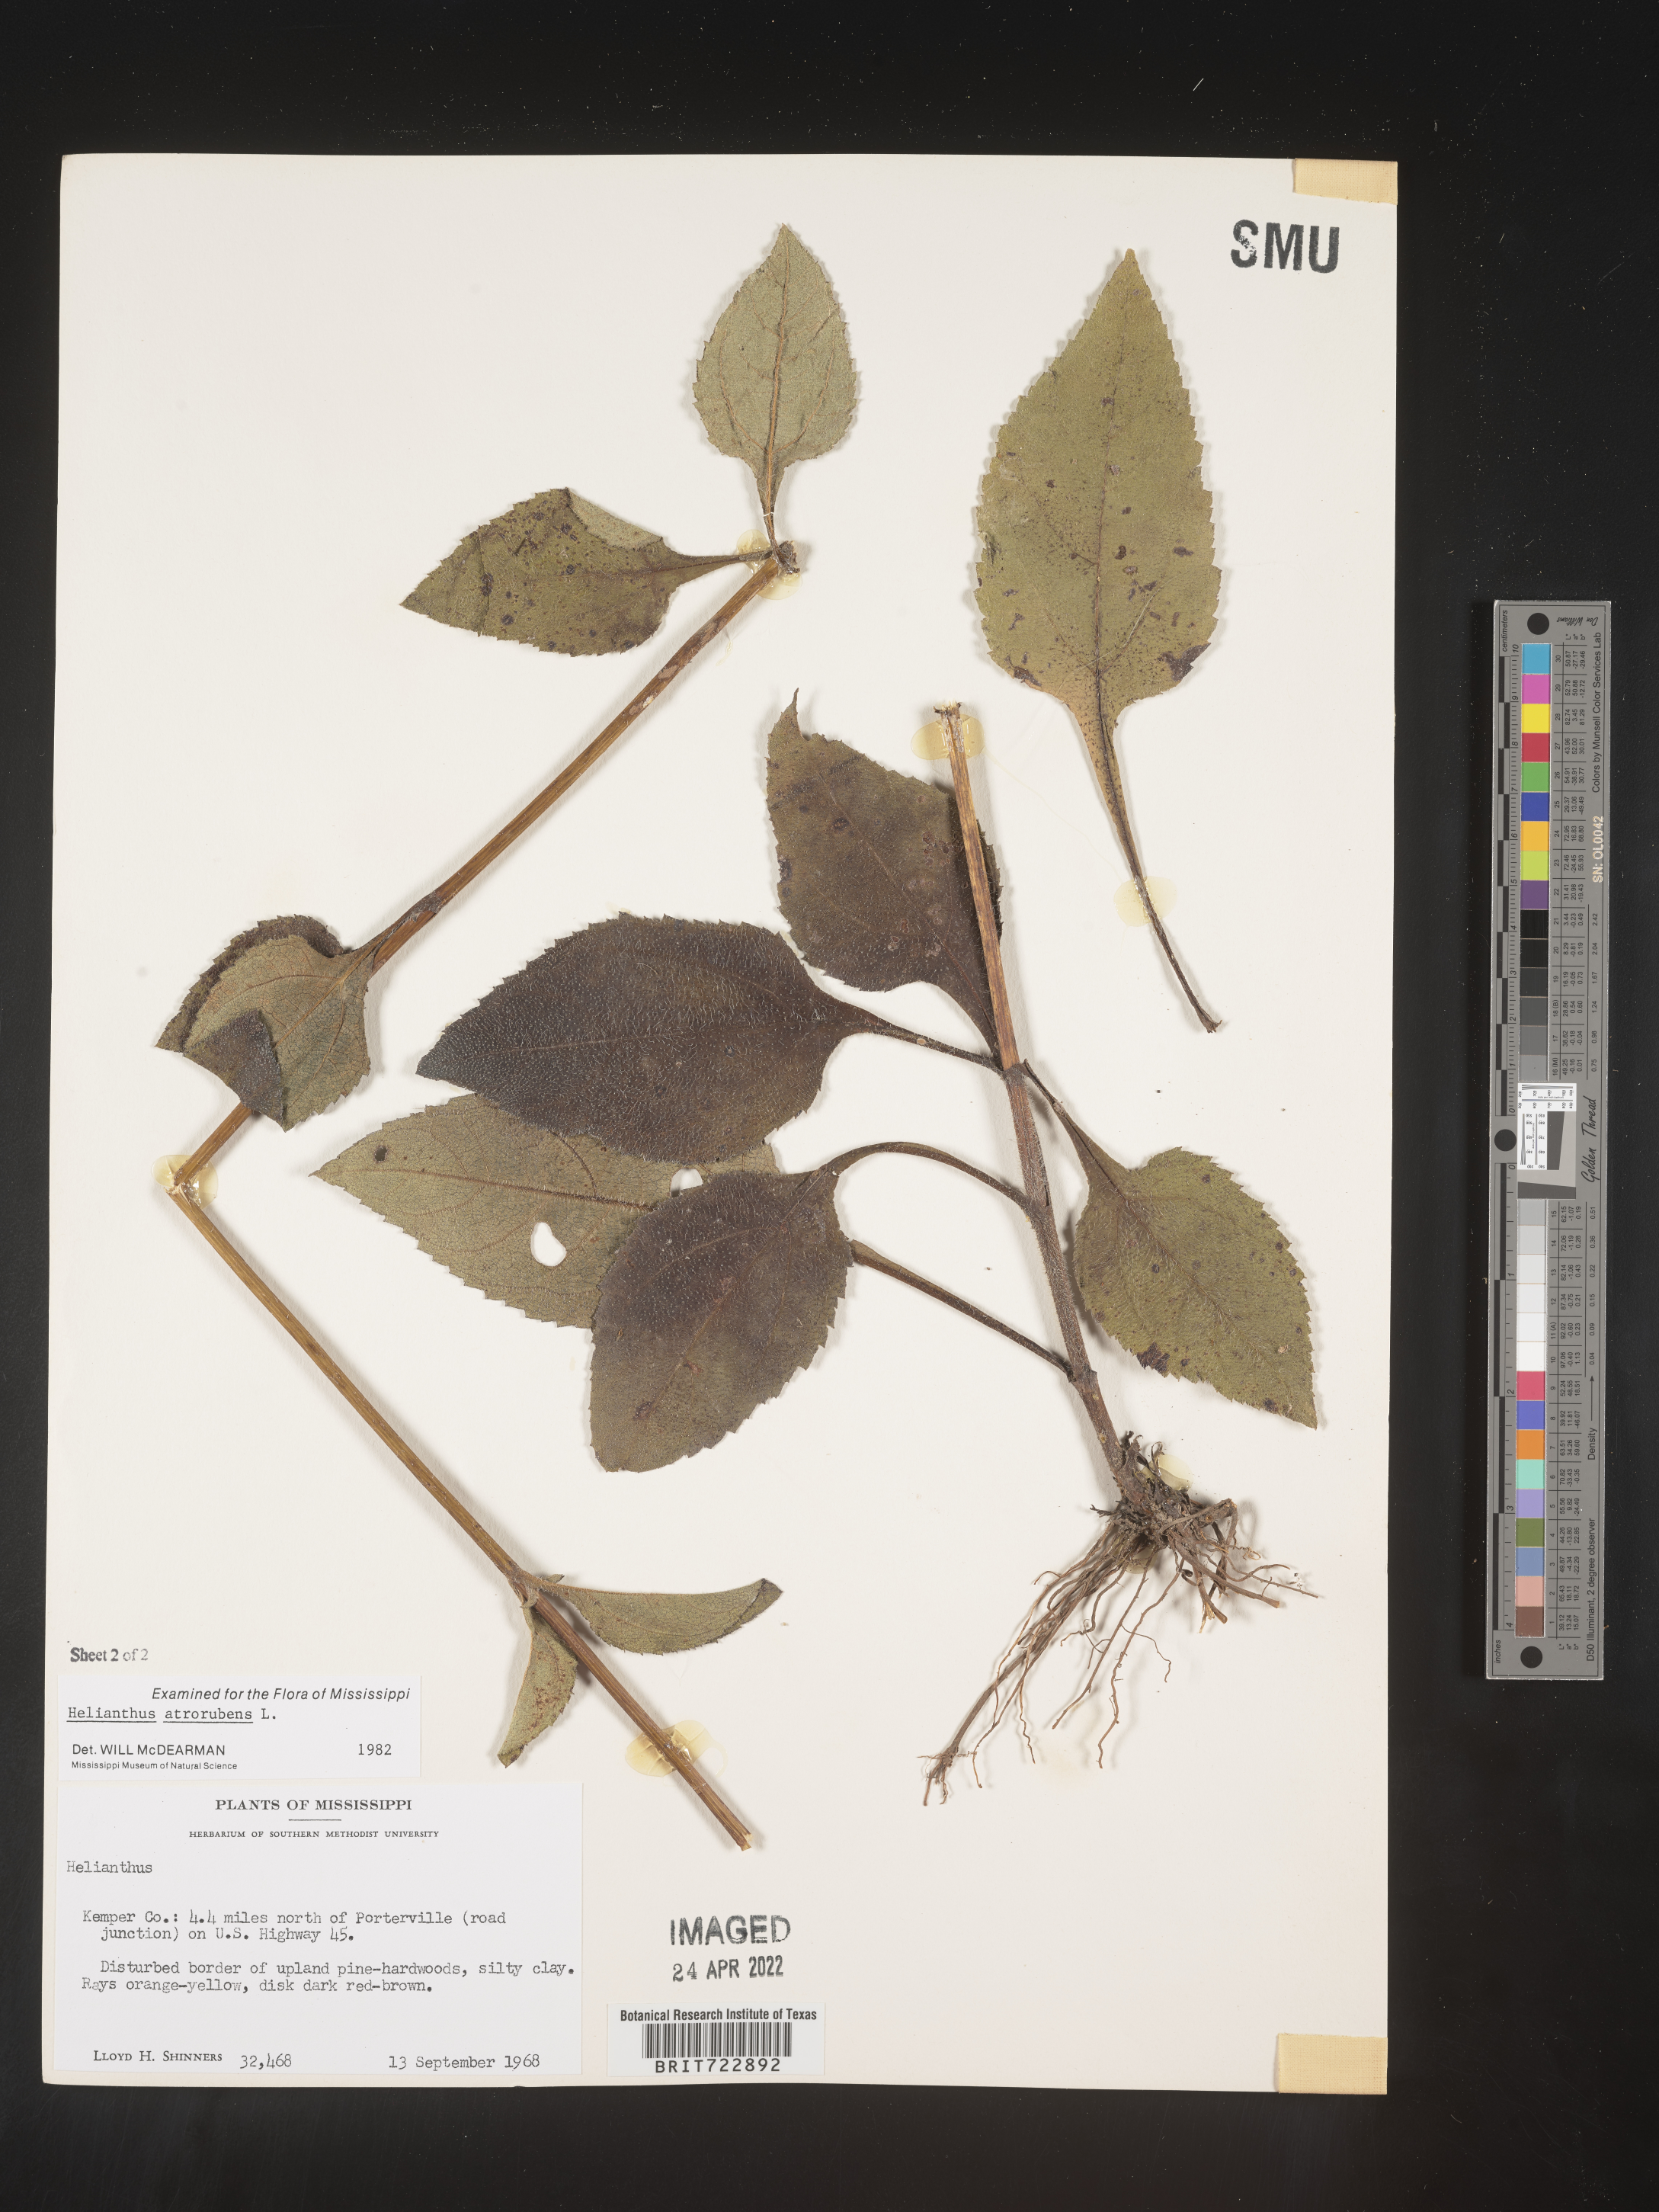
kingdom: Plantae
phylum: Tracheophyta
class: Magnoliopsida
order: Asterales
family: Asteraceae
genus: Helianthus
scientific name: Helianthus atrorubens
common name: Dark-eyed sunflower
